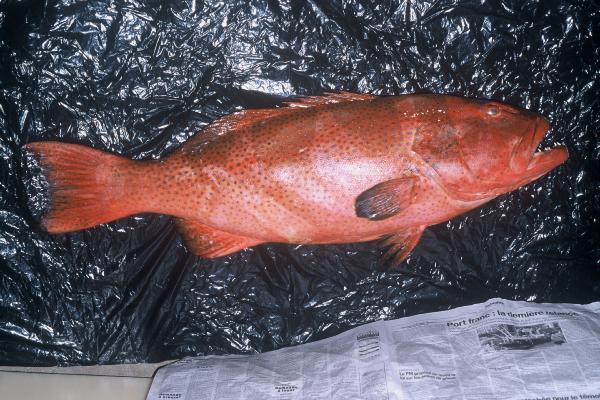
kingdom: Animalia
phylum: Chordata
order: Perciformes
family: Serranidae
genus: Plectropomus
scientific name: Plectropomus laevis
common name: Chinese footballer
